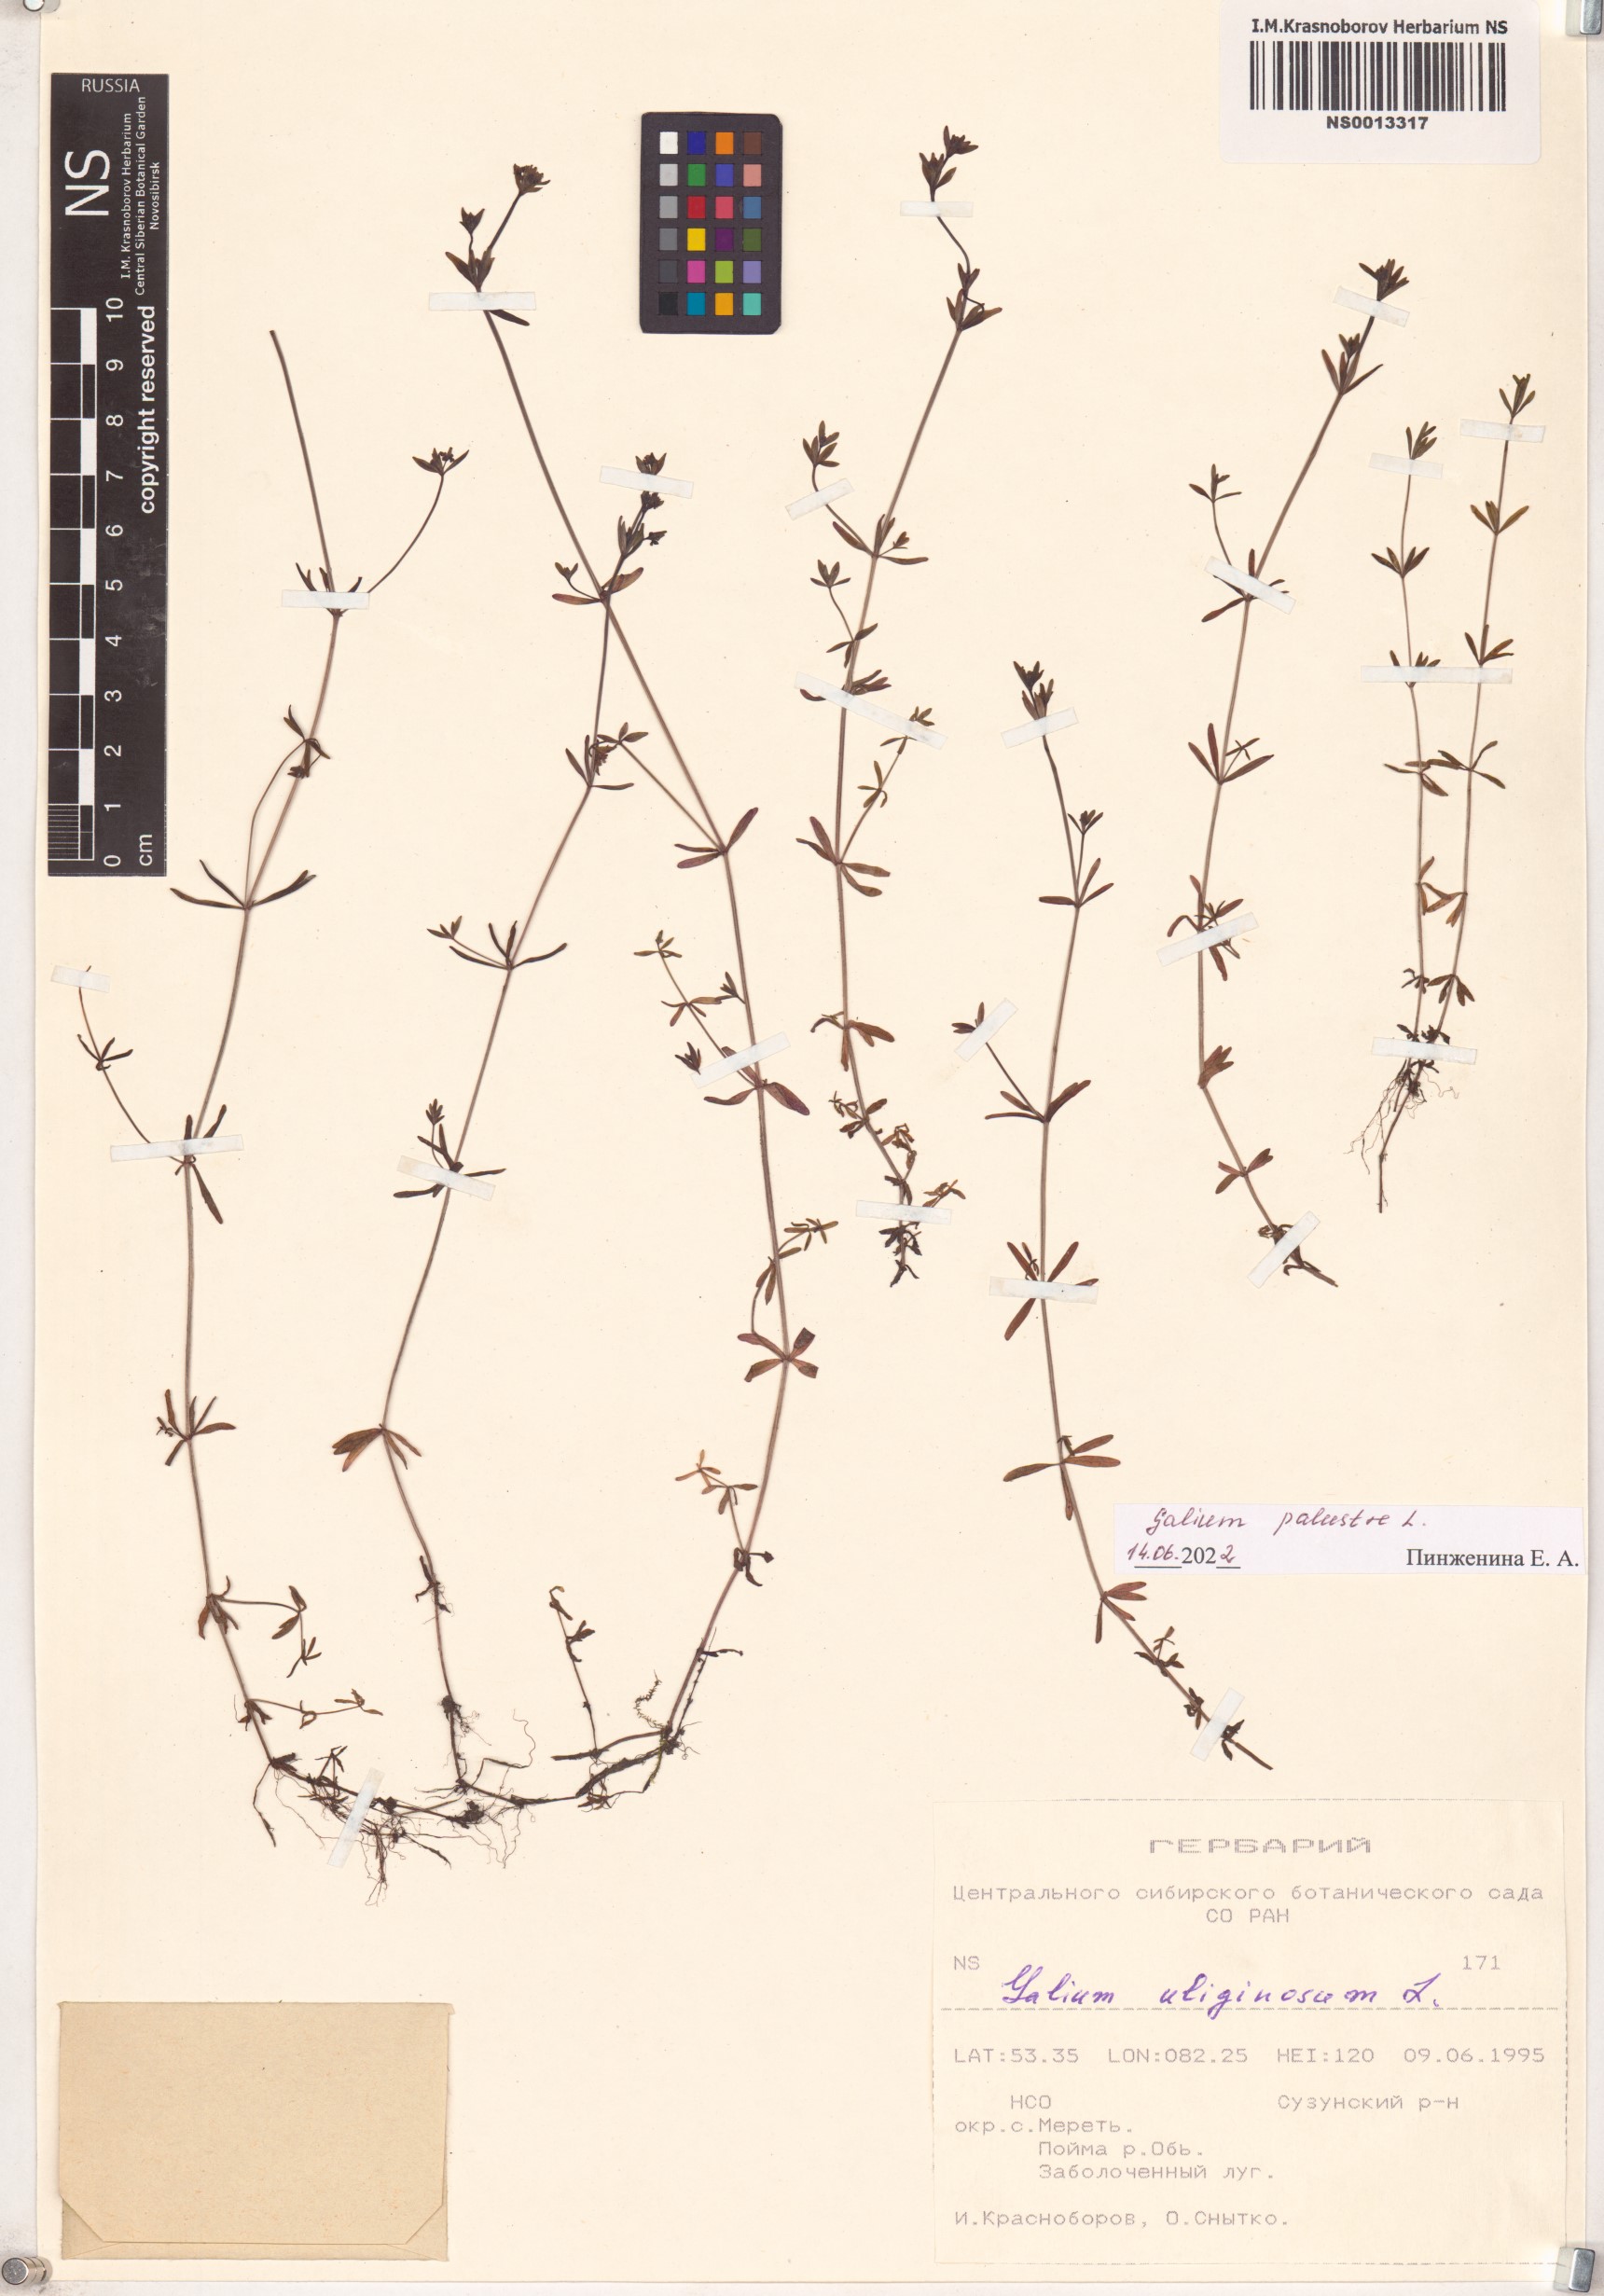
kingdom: Plantae
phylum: Tracheophyta
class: Magnoliopsida
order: Gentianales
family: Rubiaceae
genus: Galium
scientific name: Galium palustre
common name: Common marsh-bedstraw
